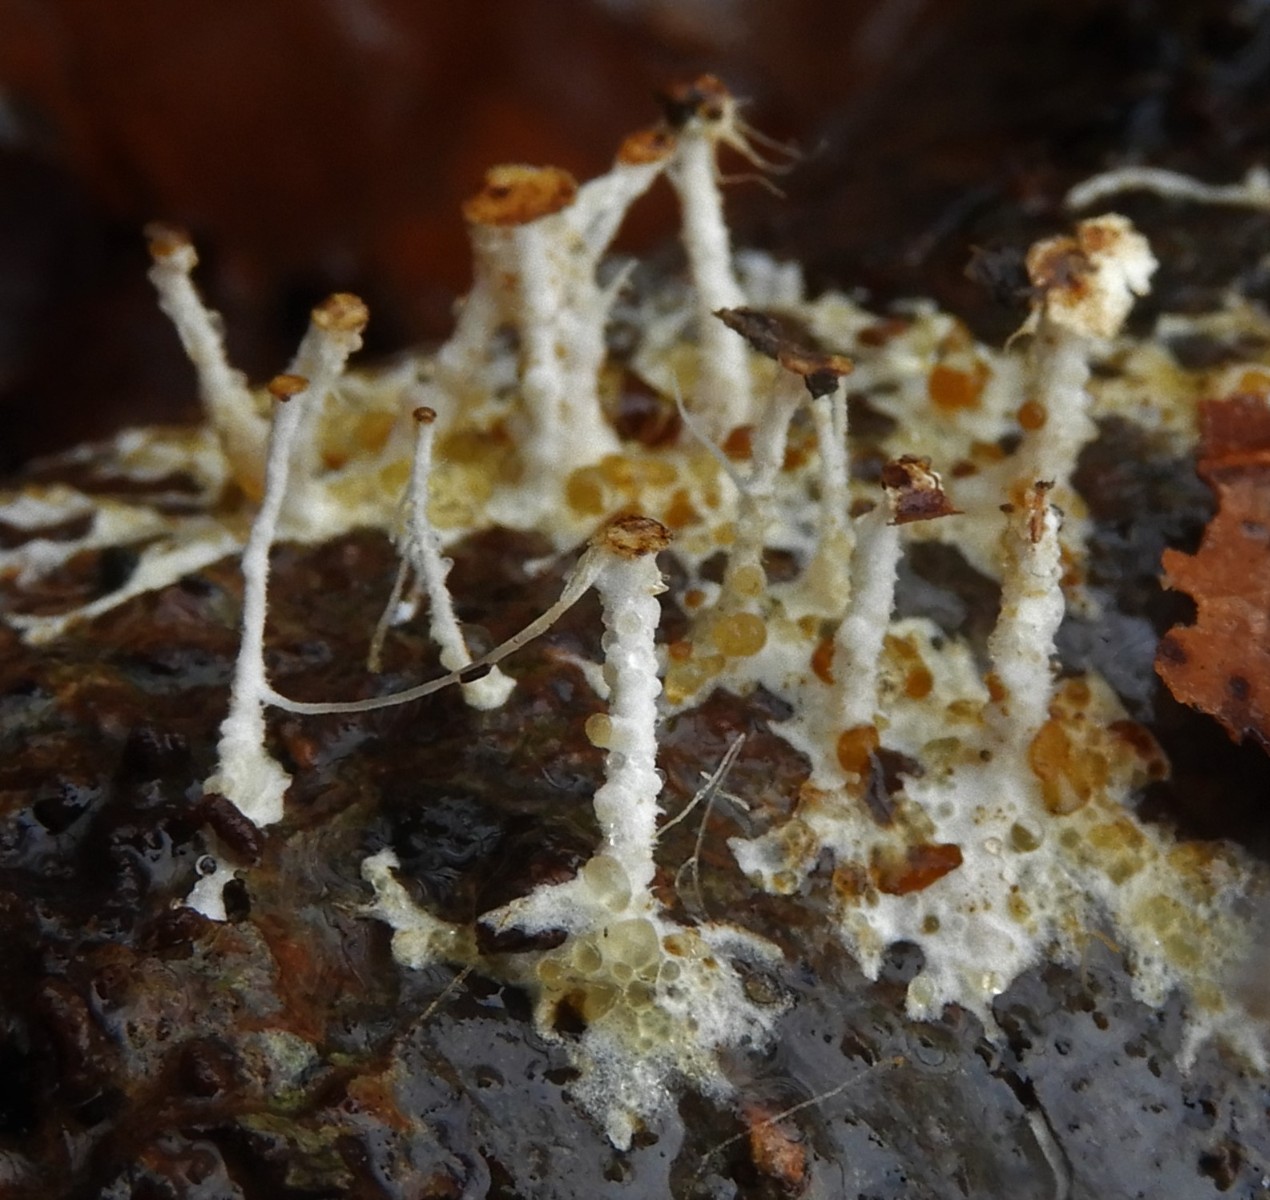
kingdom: Fungi
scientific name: Fungi
